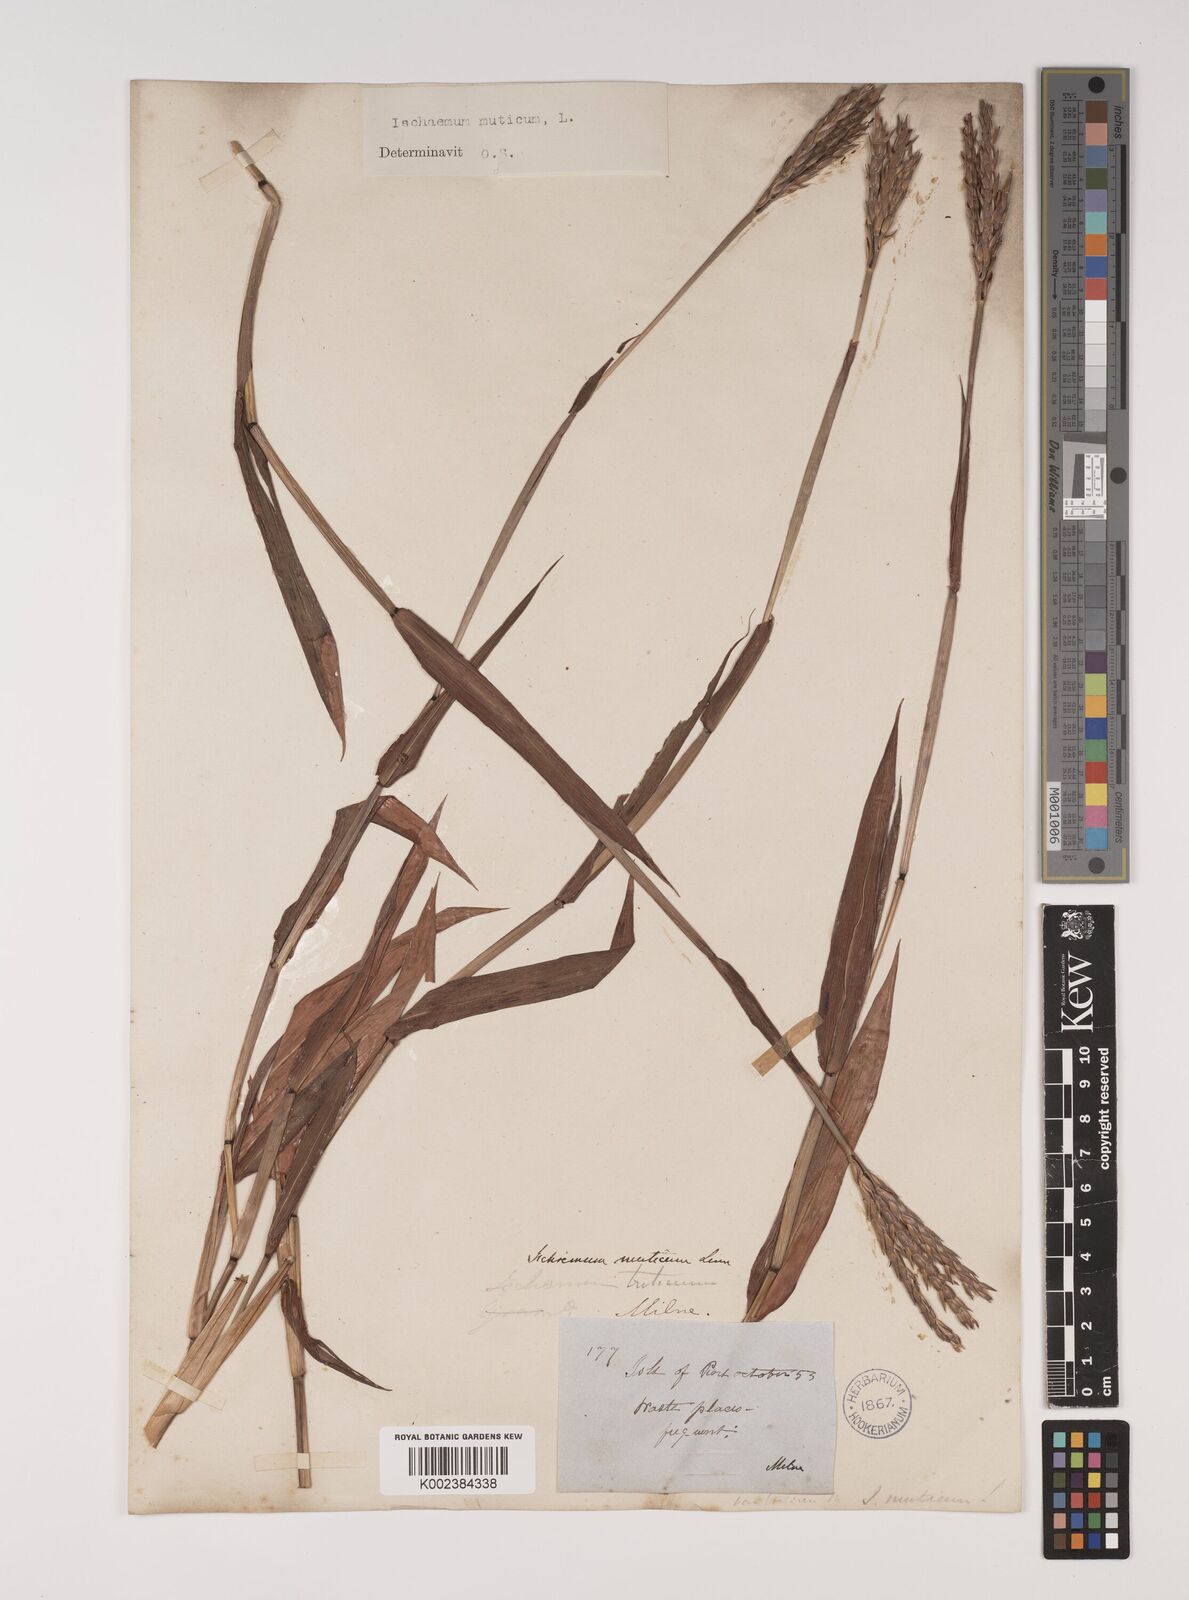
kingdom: Plantae
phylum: Tracheophyta
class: Liliopsida
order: Poales
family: Poaceae
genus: Ischaemum
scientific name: Ischaemum muticum
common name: Drought grass
